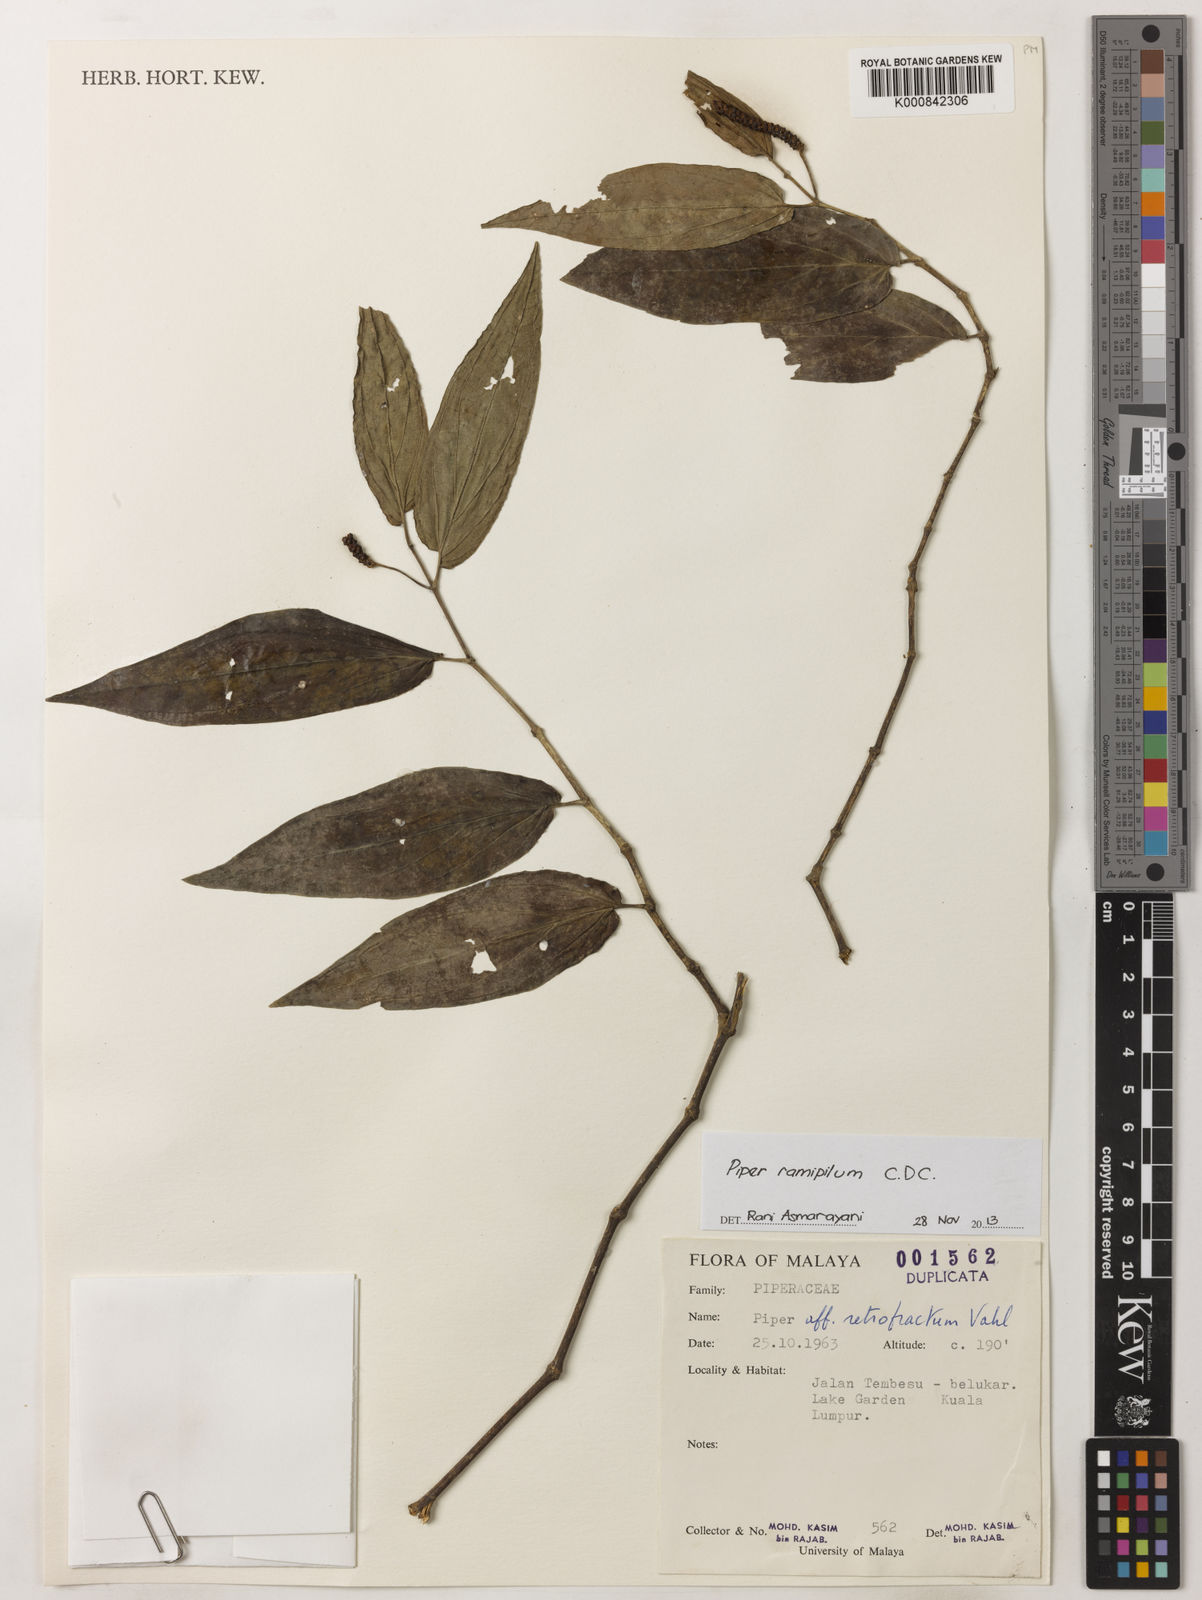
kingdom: Plantae
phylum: Tracheophyta
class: Magnoliopsida
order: Piperales
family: Piperaceae
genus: Piper
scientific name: Piper frustratum
